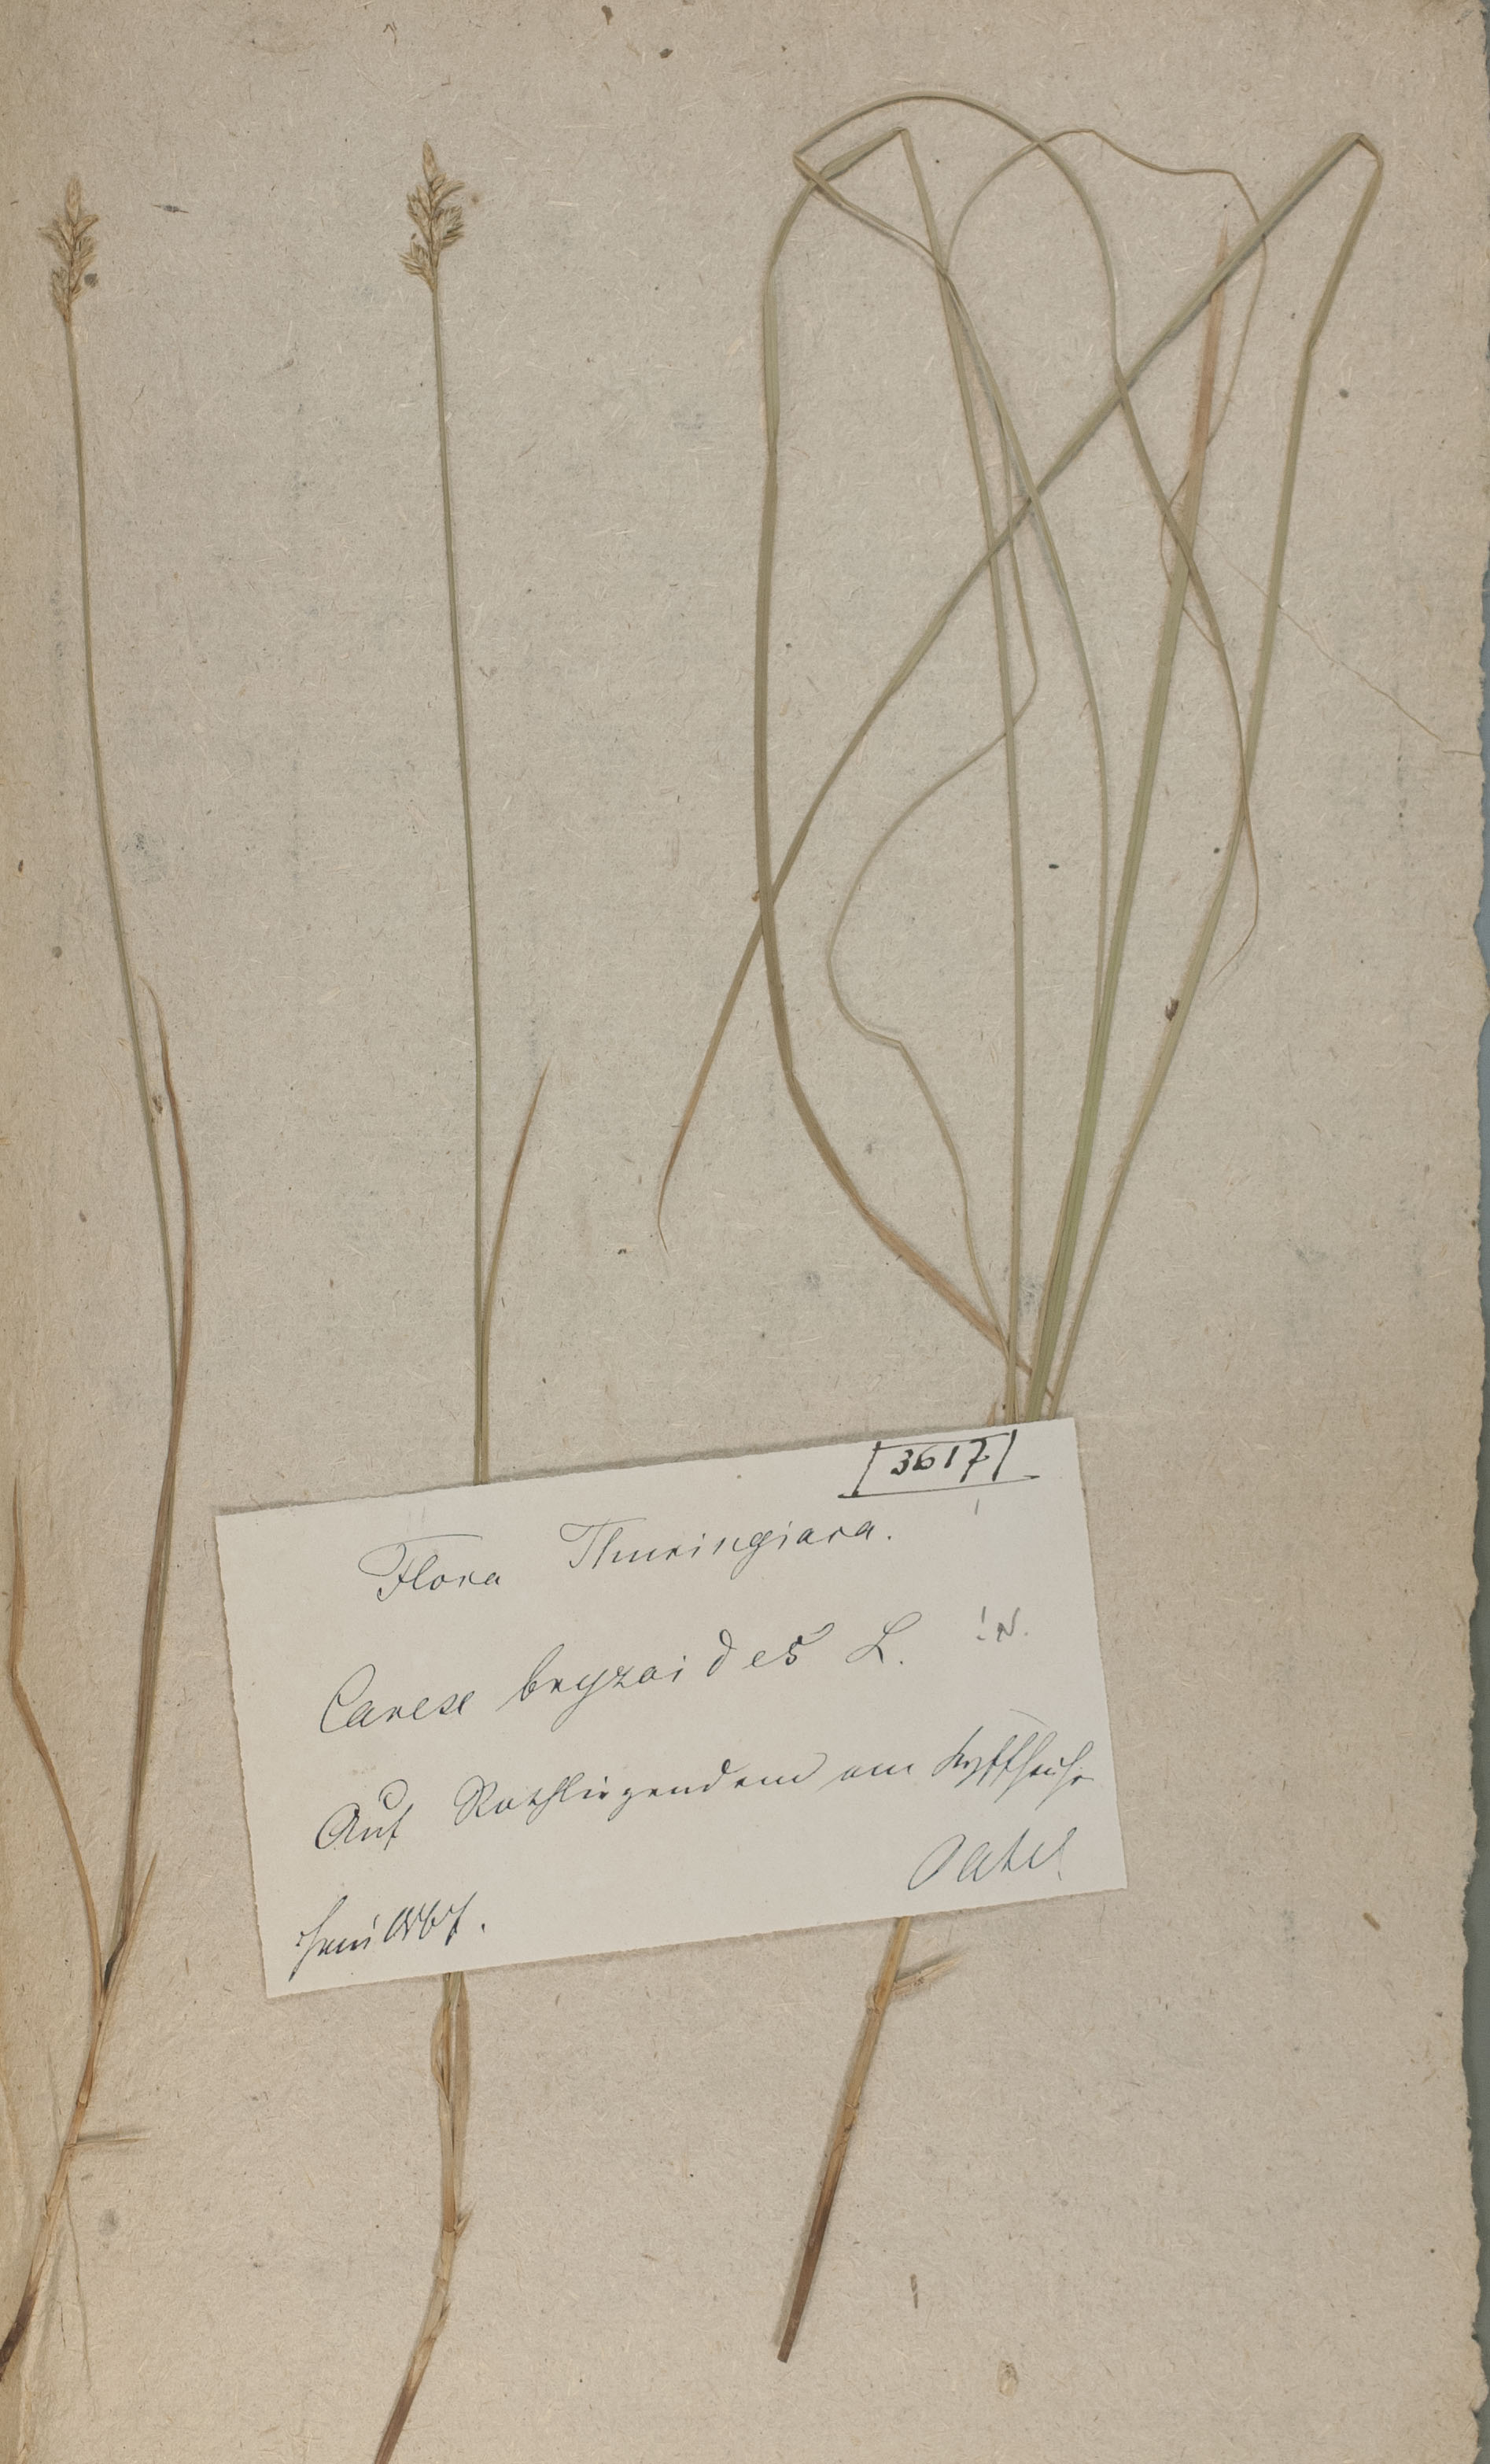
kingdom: Plantae
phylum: Tracheophyta
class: Liliopsida
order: Poales
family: Cyperaceae
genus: Carex
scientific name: Carex brizoides
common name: Quaking-grass sedge
